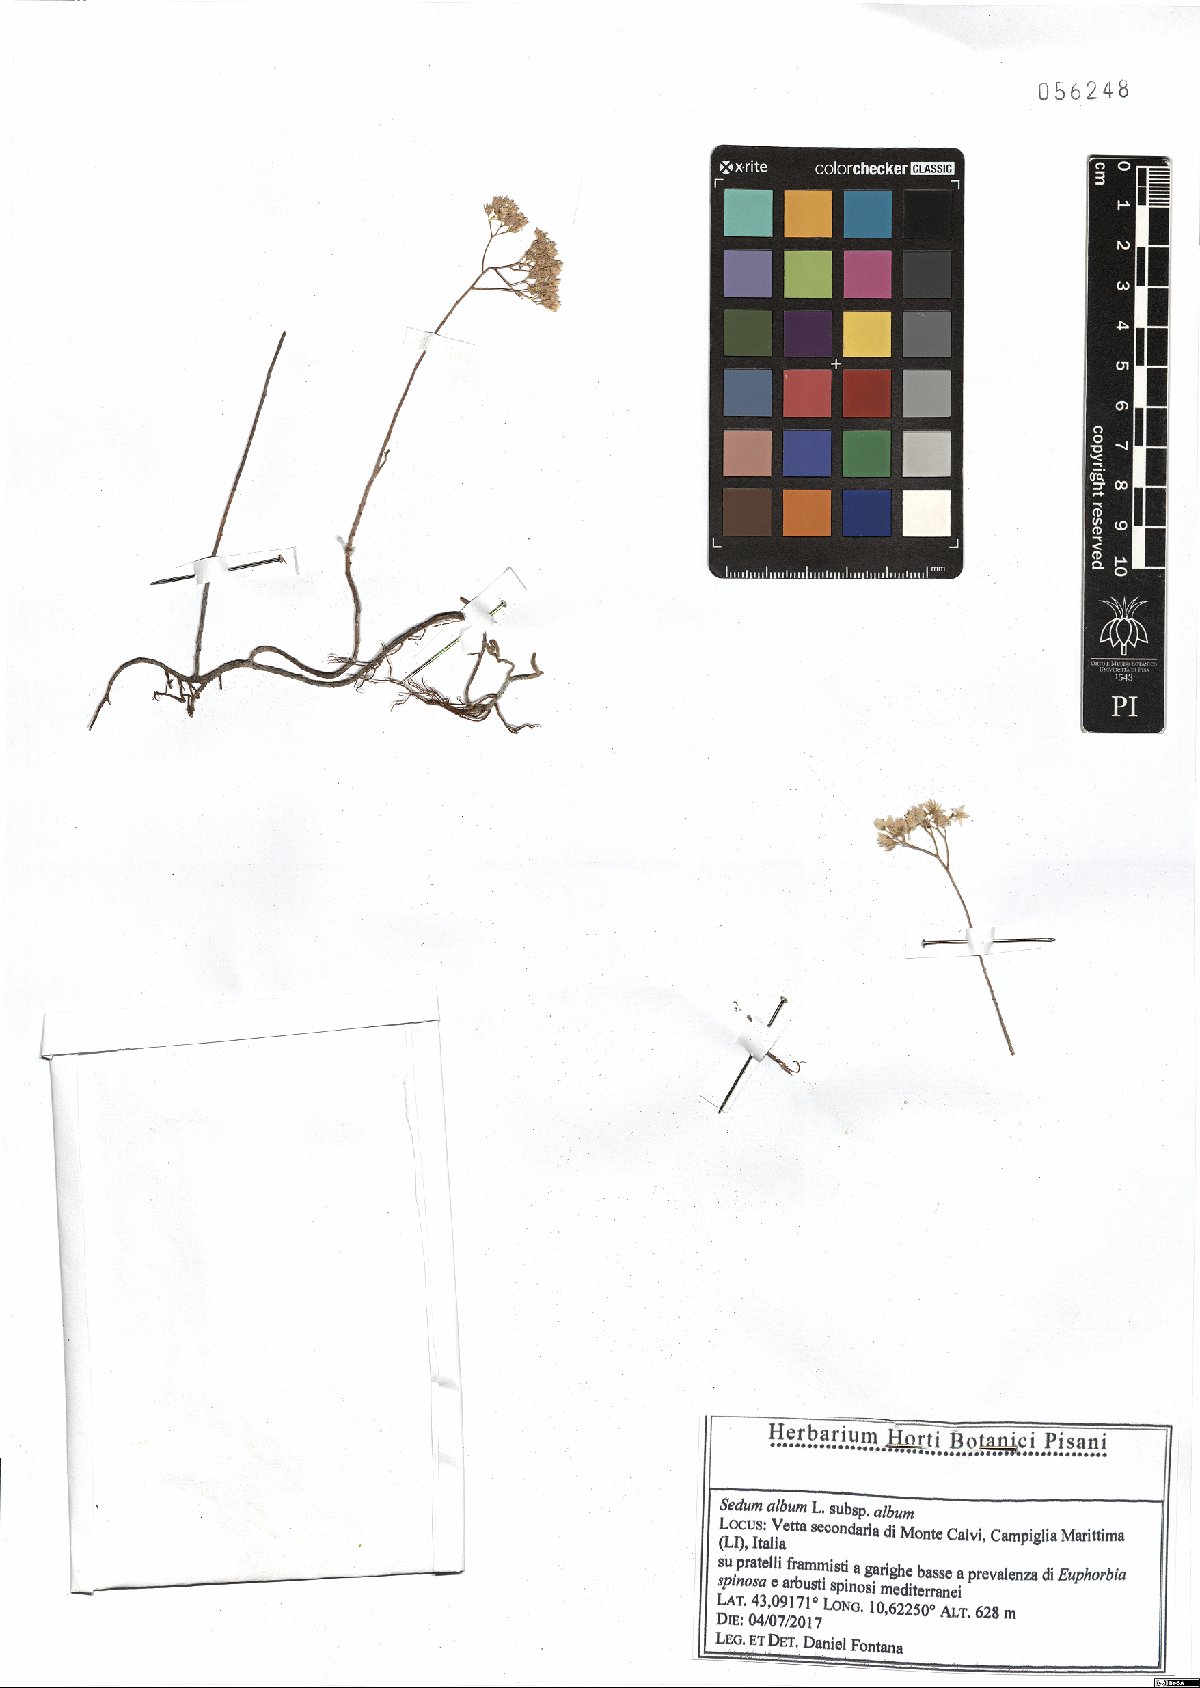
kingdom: Plantae
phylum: Tracheophyta
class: Magnoliopsida
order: Saxifragales
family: Crassulaceae
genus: Sedum
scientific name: Sedum album
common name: White stonecrop
